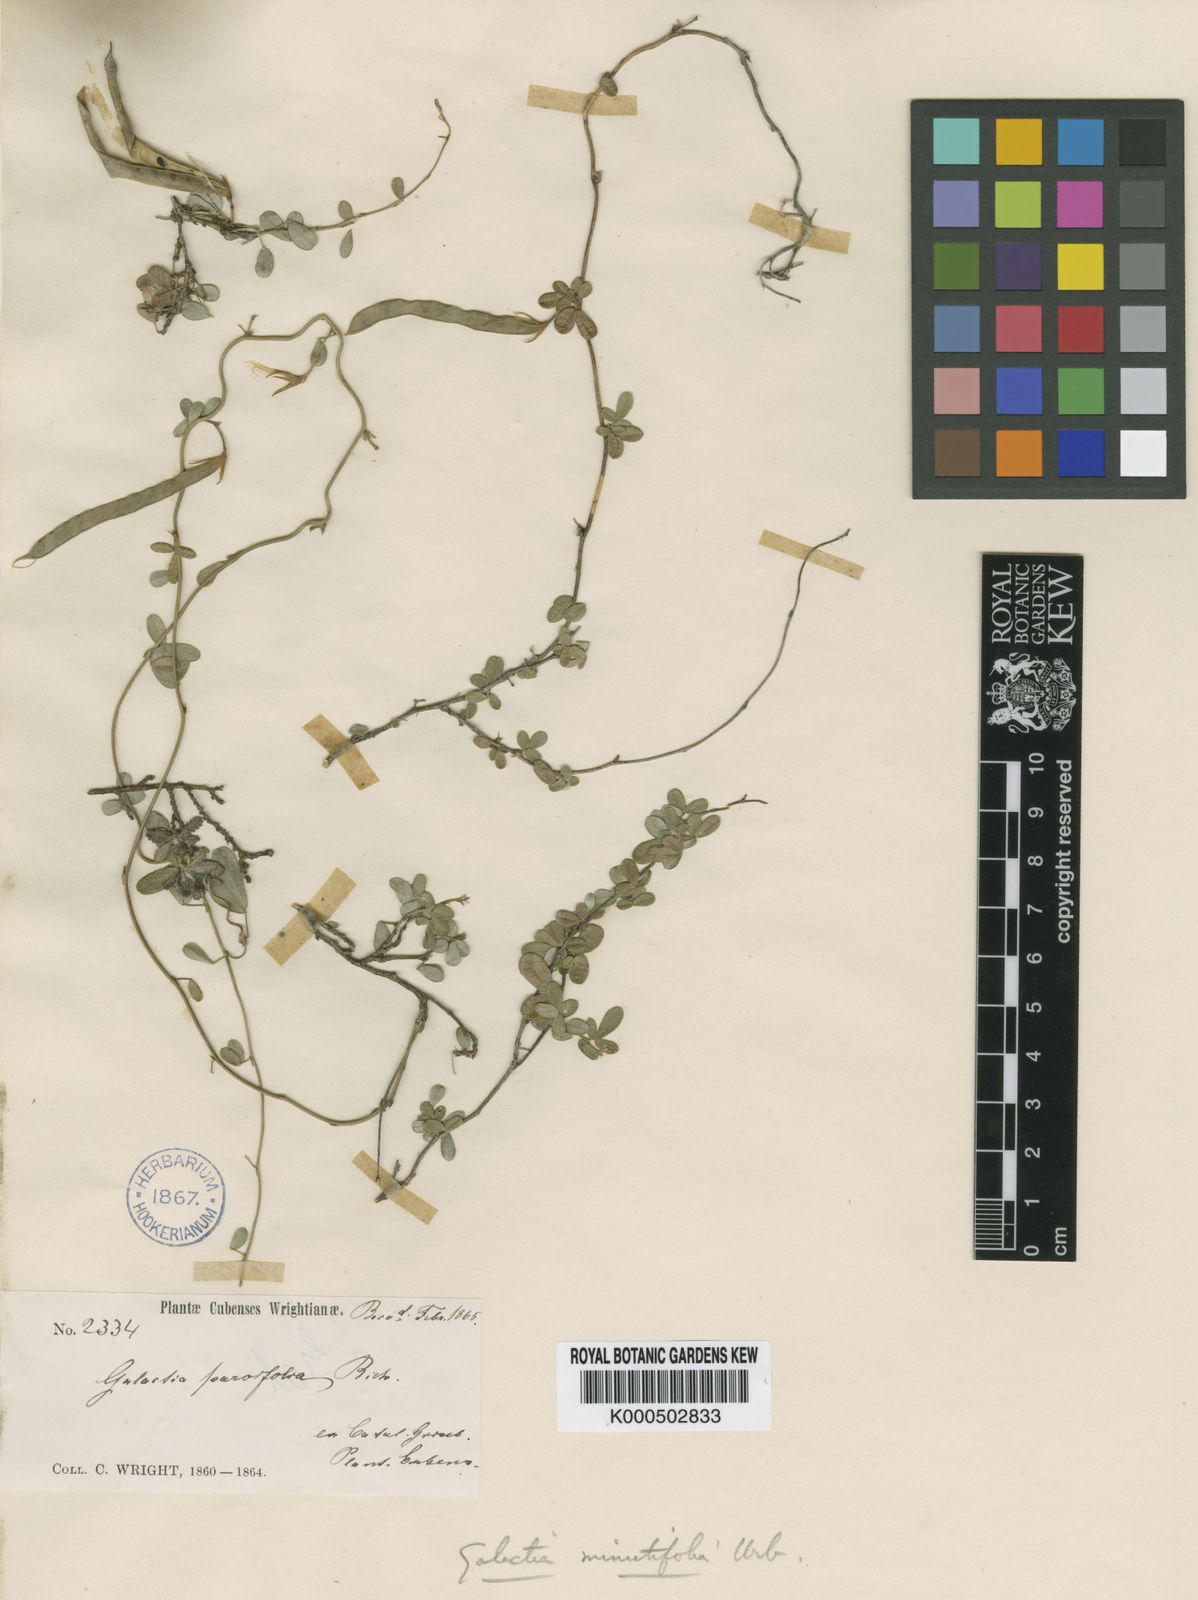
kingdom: Plantae
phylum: Tracheophyta
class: Magnoliopsida
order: Fabales
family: Fabaceae
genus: Galactia
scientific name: Galactia
